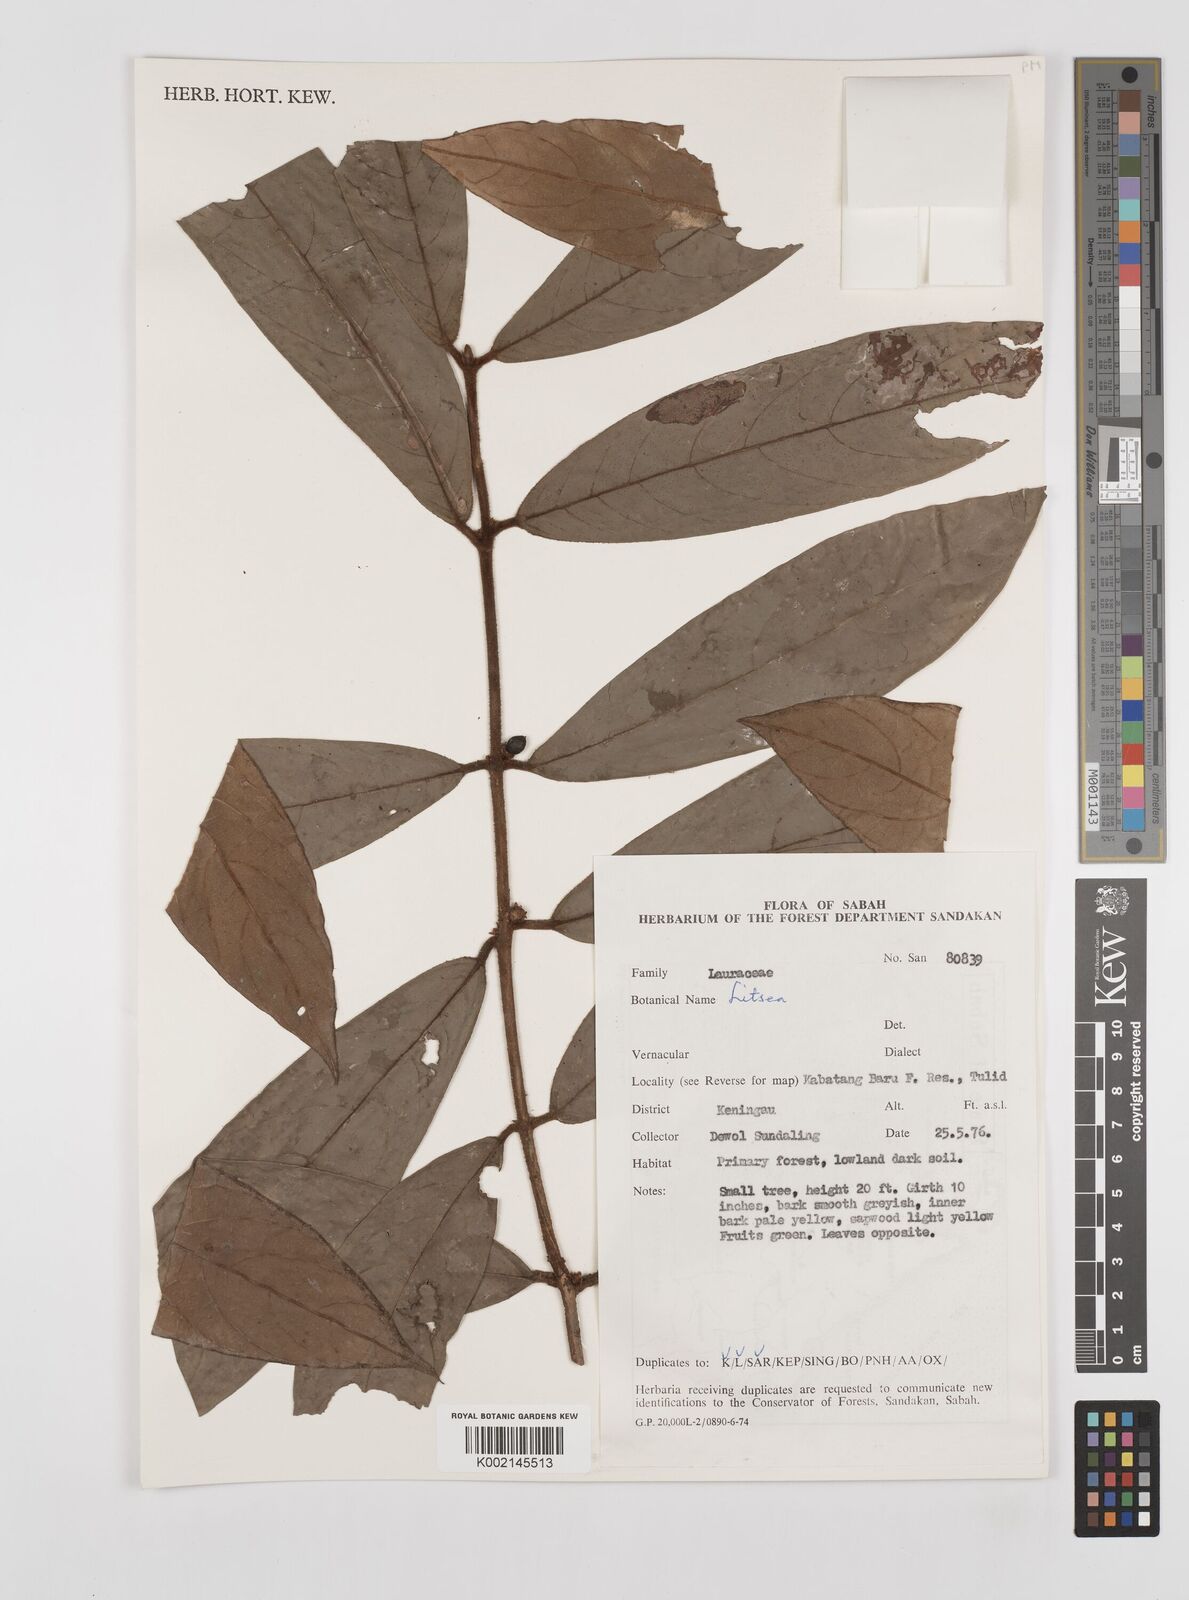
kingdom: Plantae
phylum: Tracheophyta
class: Magnoliopsida
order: Laurales
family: Lauraceae
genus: Litsea
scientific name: Litsea
